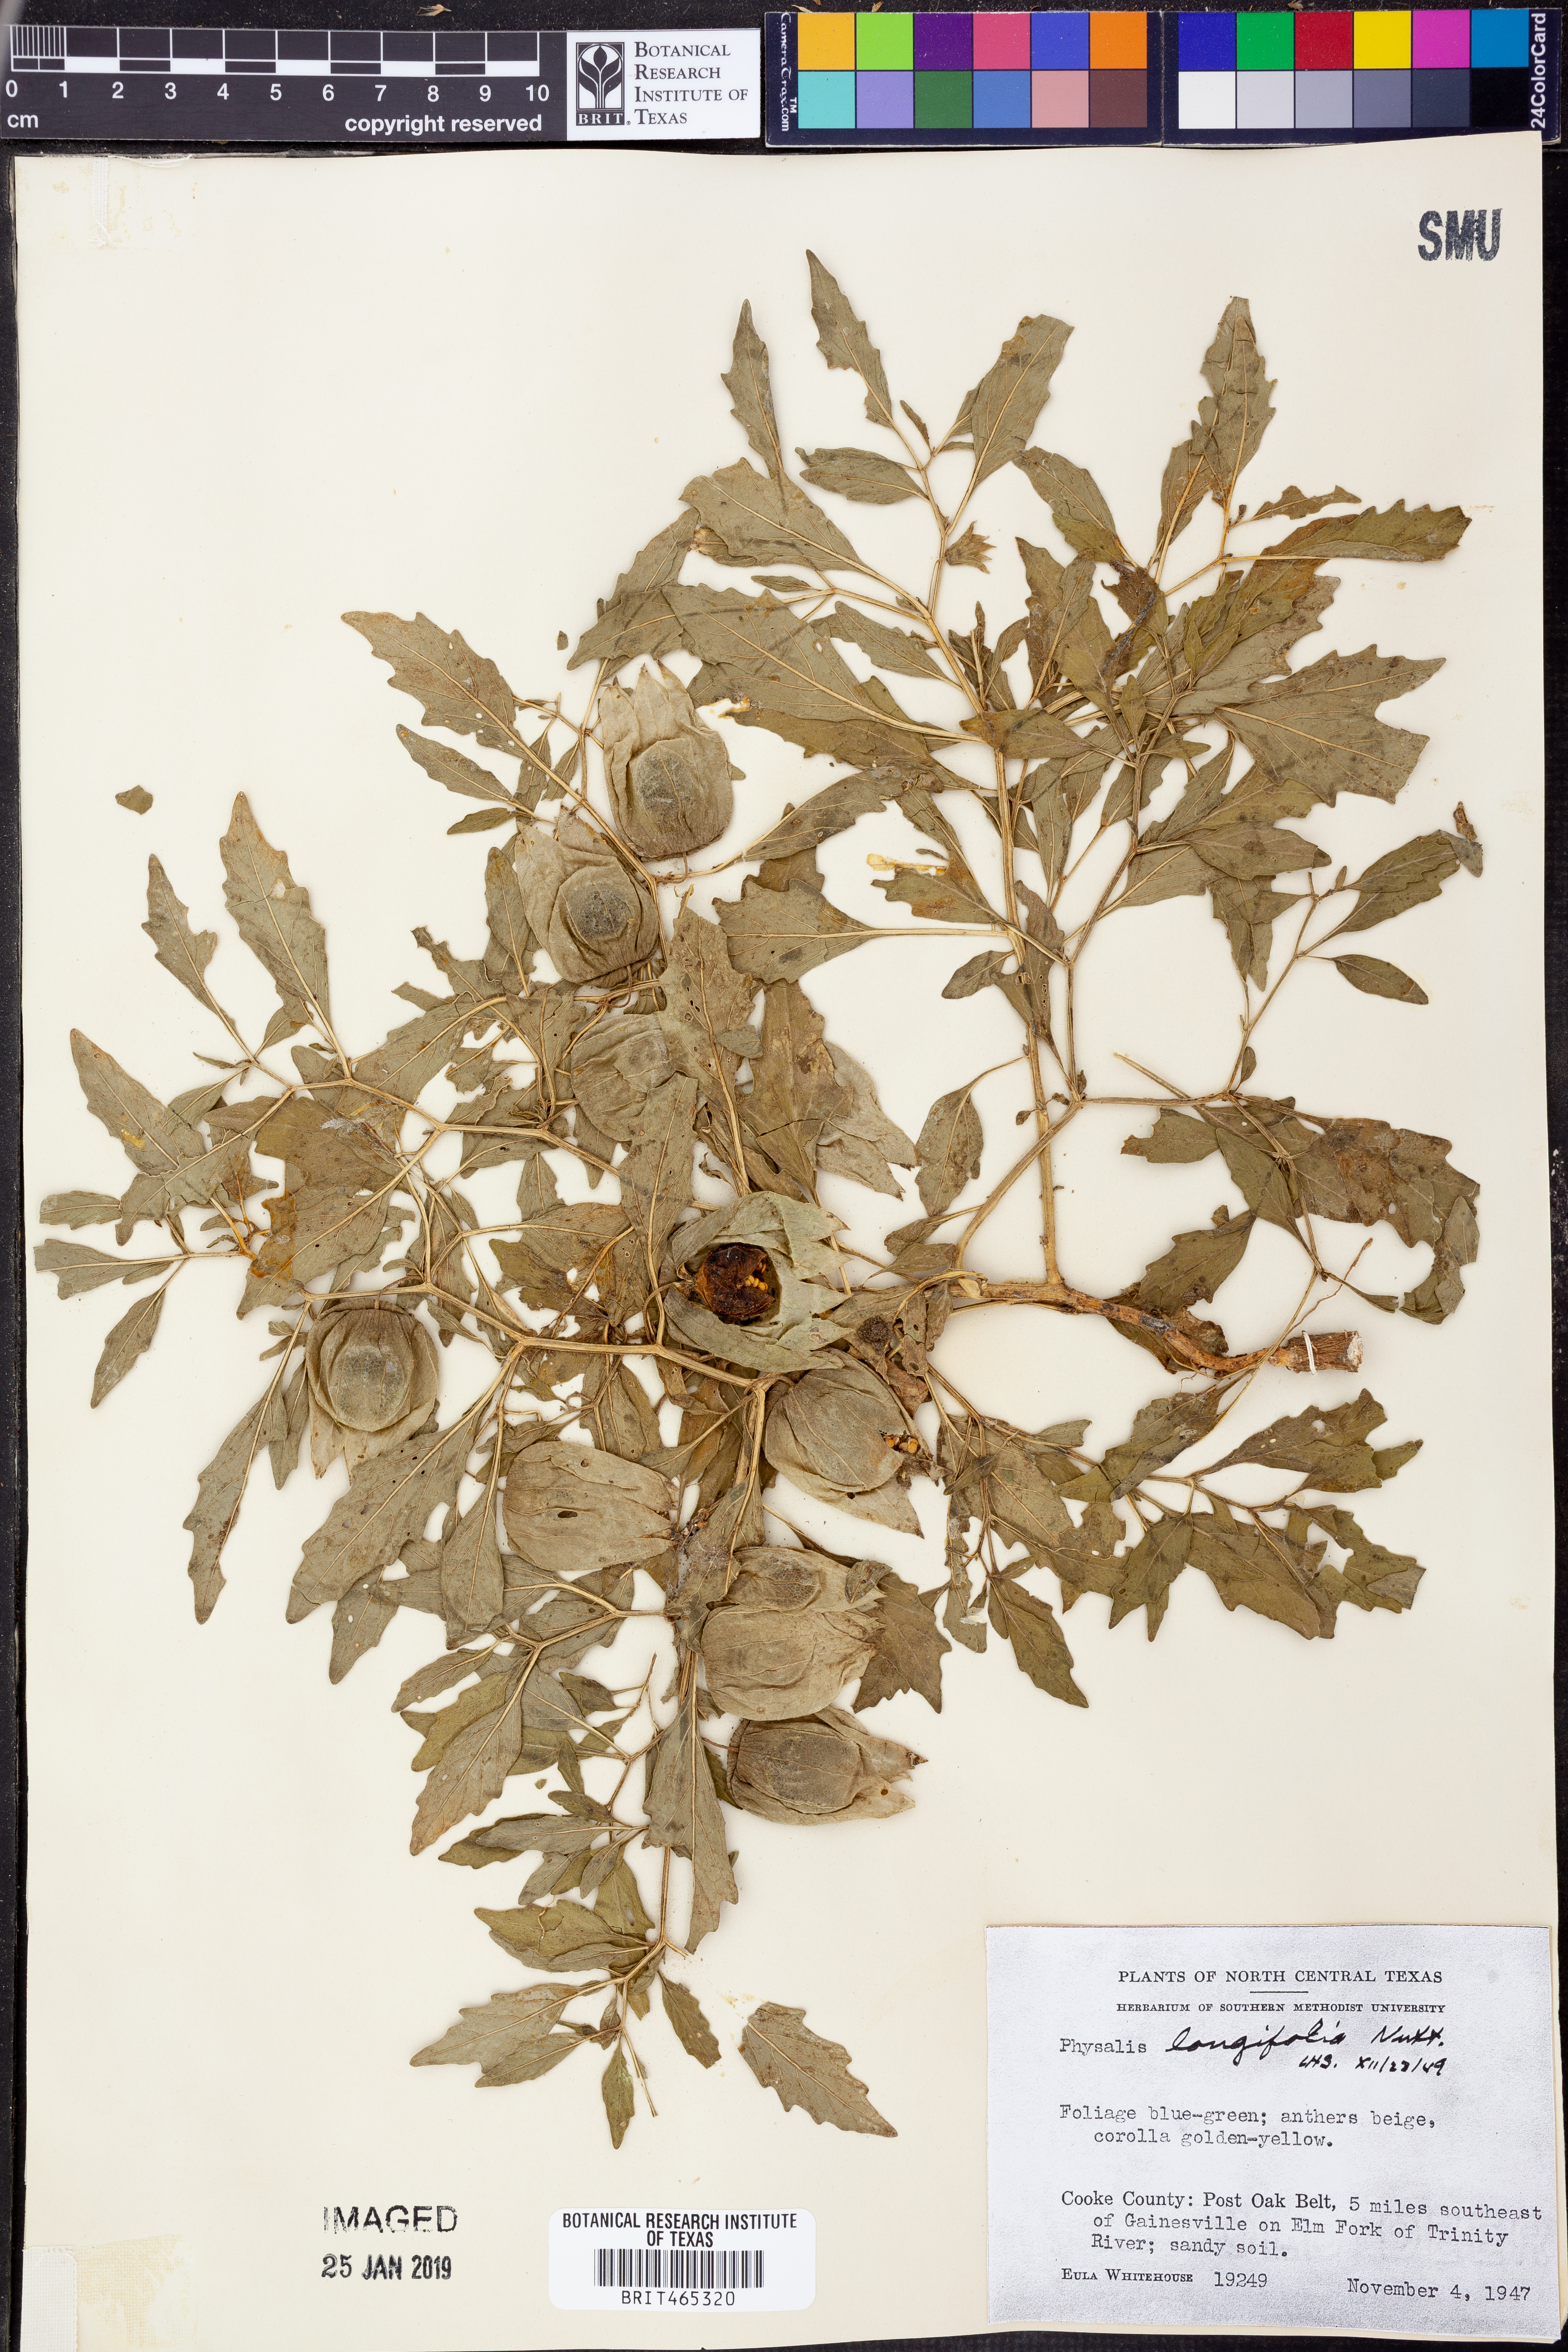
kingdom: Plantae
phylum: Tracheophyta
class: Magnoliopsida
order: Solanales
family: Solanaceae
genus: Physalis
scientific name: Physalis longifolia
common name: Common ground-cherry
